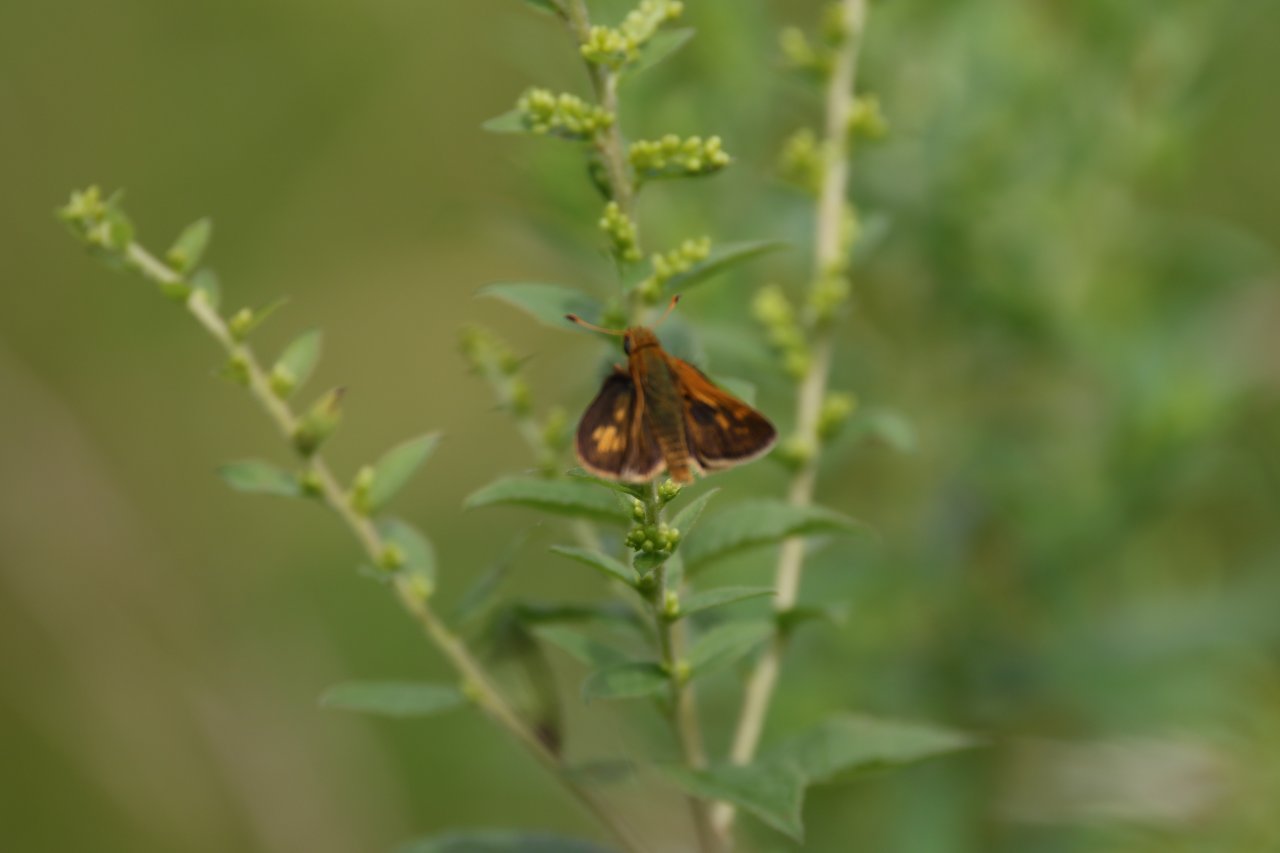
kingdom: Animalia
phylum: Arthropoda
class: Insecta
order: Lepidoptera
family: Hesperiidae
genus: Polites
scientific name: Polites coras
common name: Peck's Skipper
